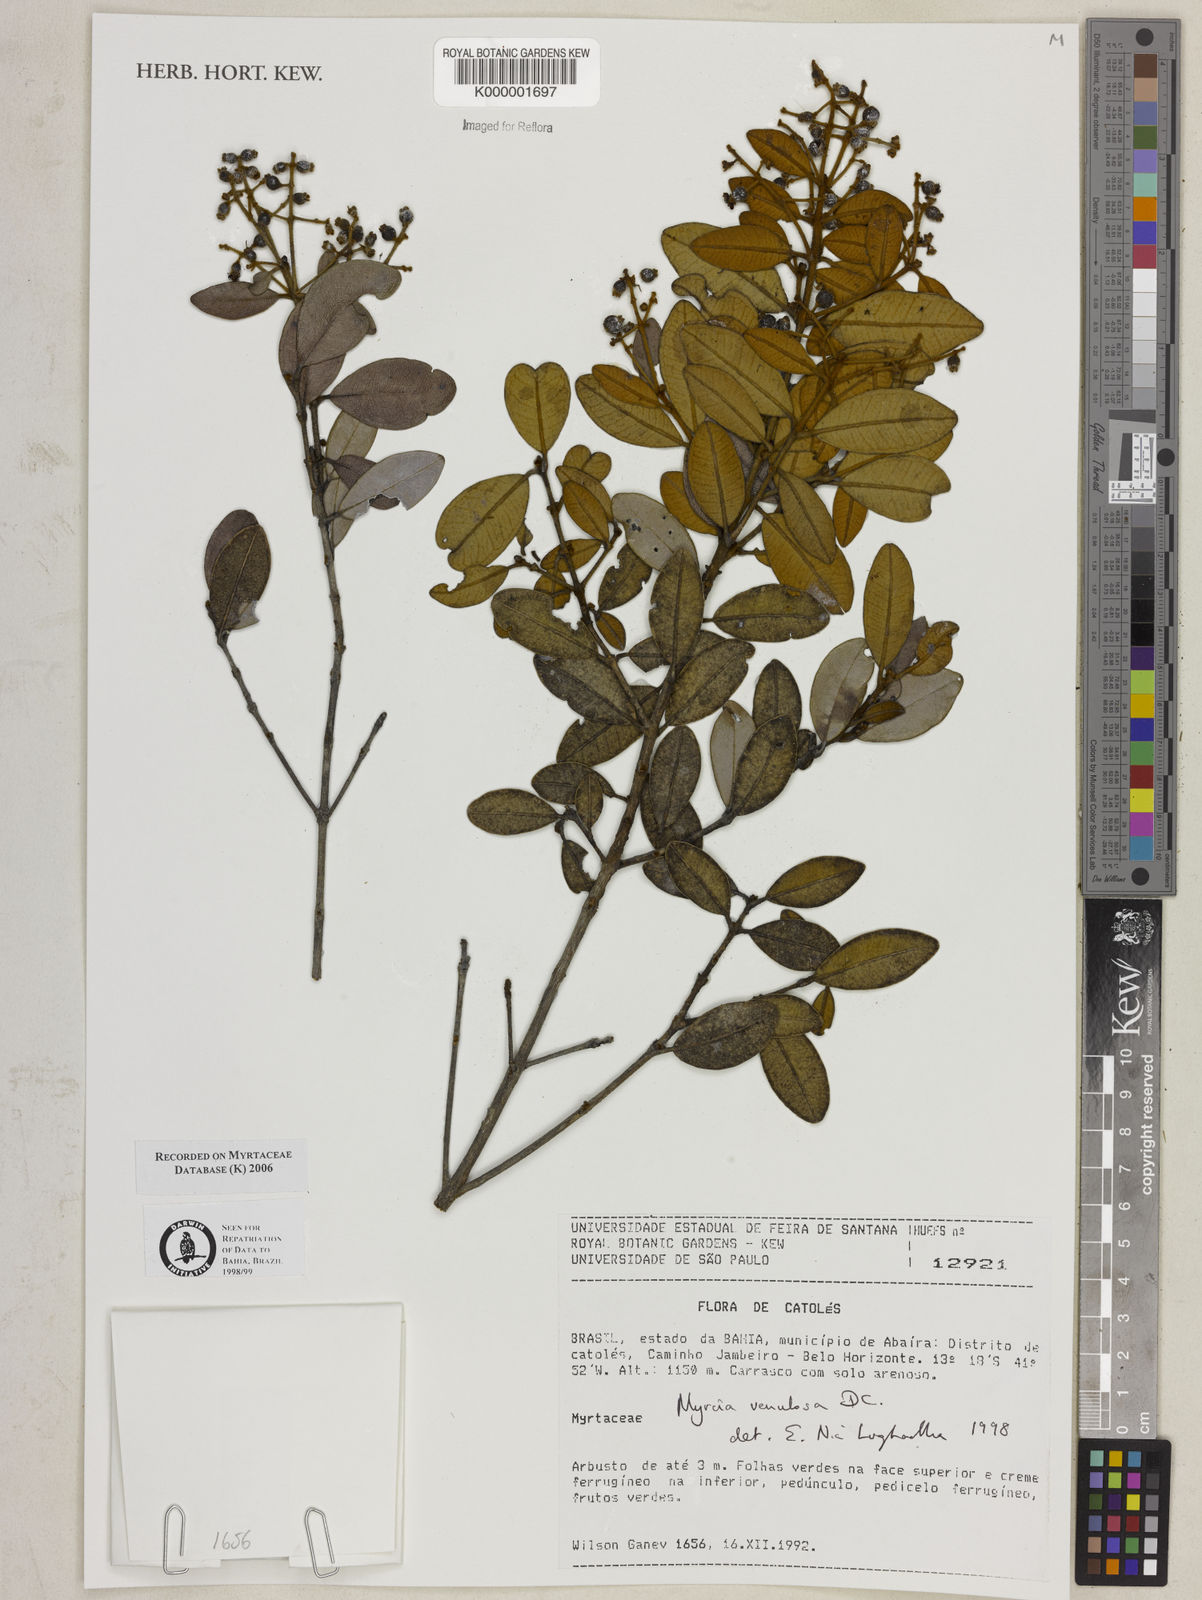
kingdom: Plantae
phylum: Tracheophyta
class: Magnoliopsida
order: Myrtales
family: Myrtaceae
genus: Myrcia
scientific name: Myrcia venulosa
